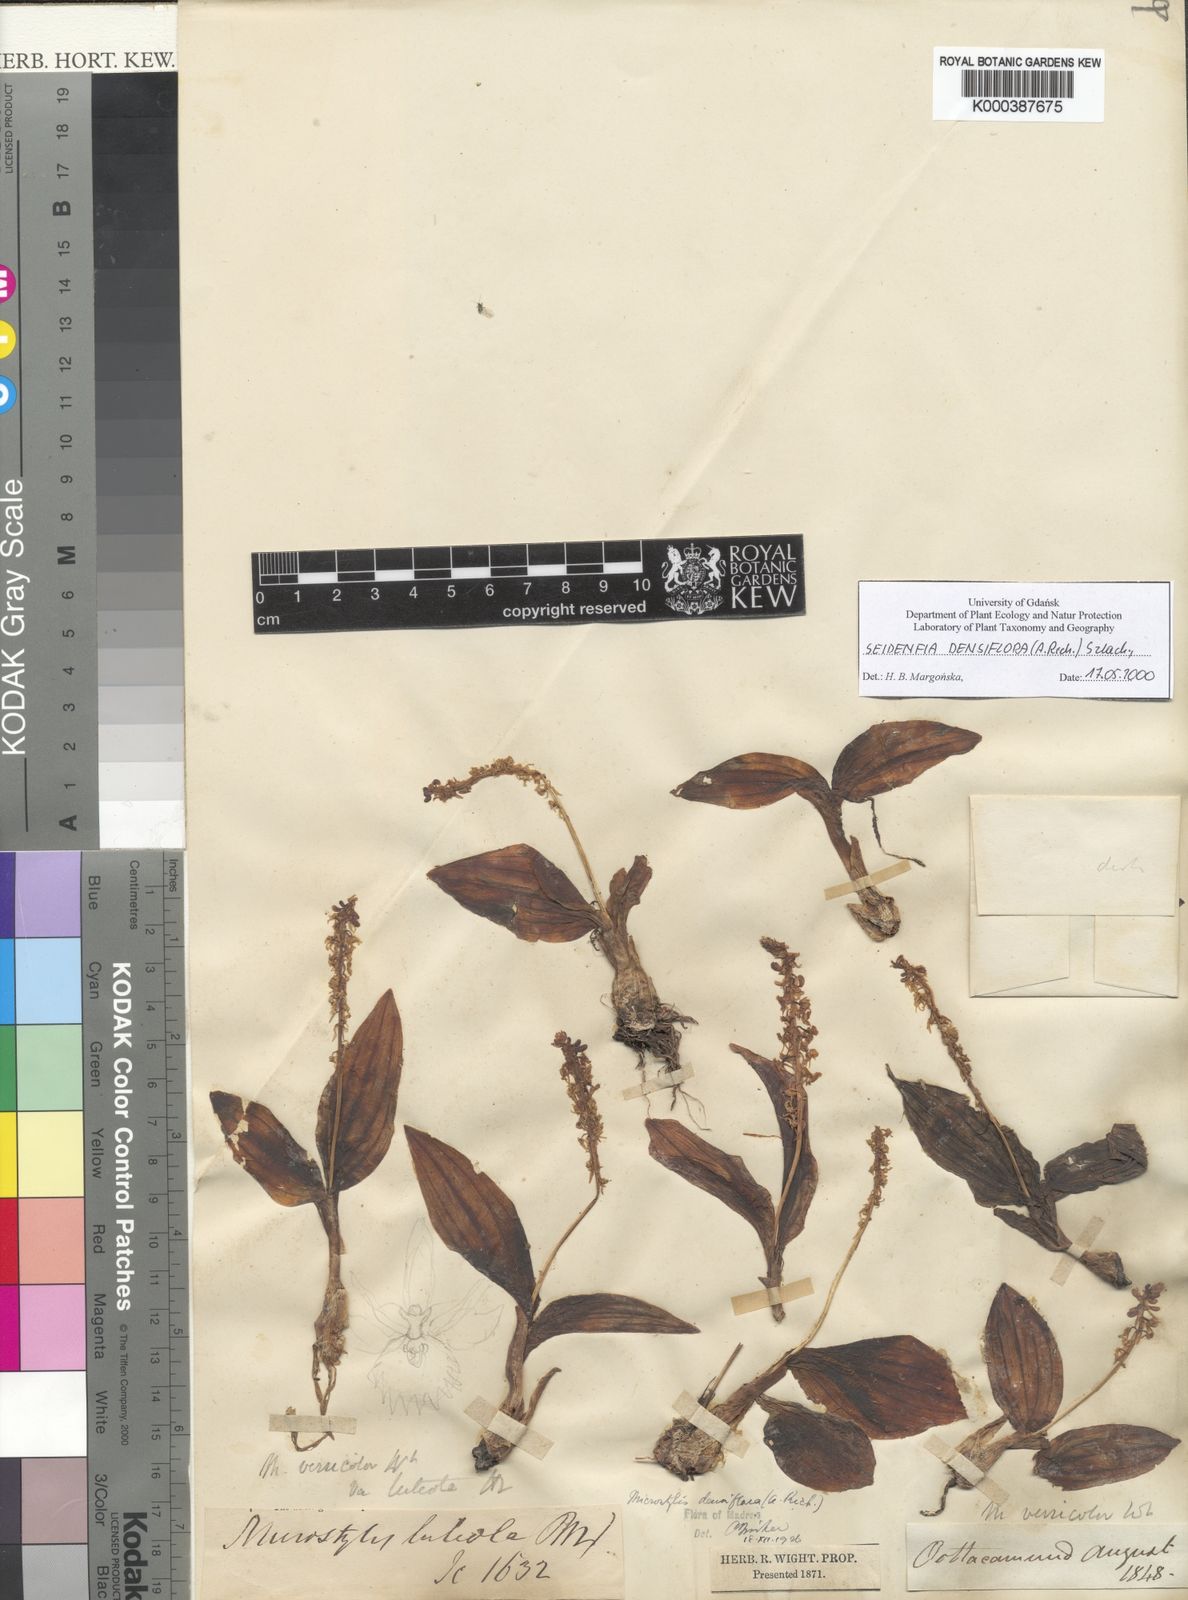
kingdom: Plantae
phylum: Tracheophyta
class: Liliopsida
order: Asparagales
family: Orchidaceae
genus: Crepidium
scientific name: Crepidium
